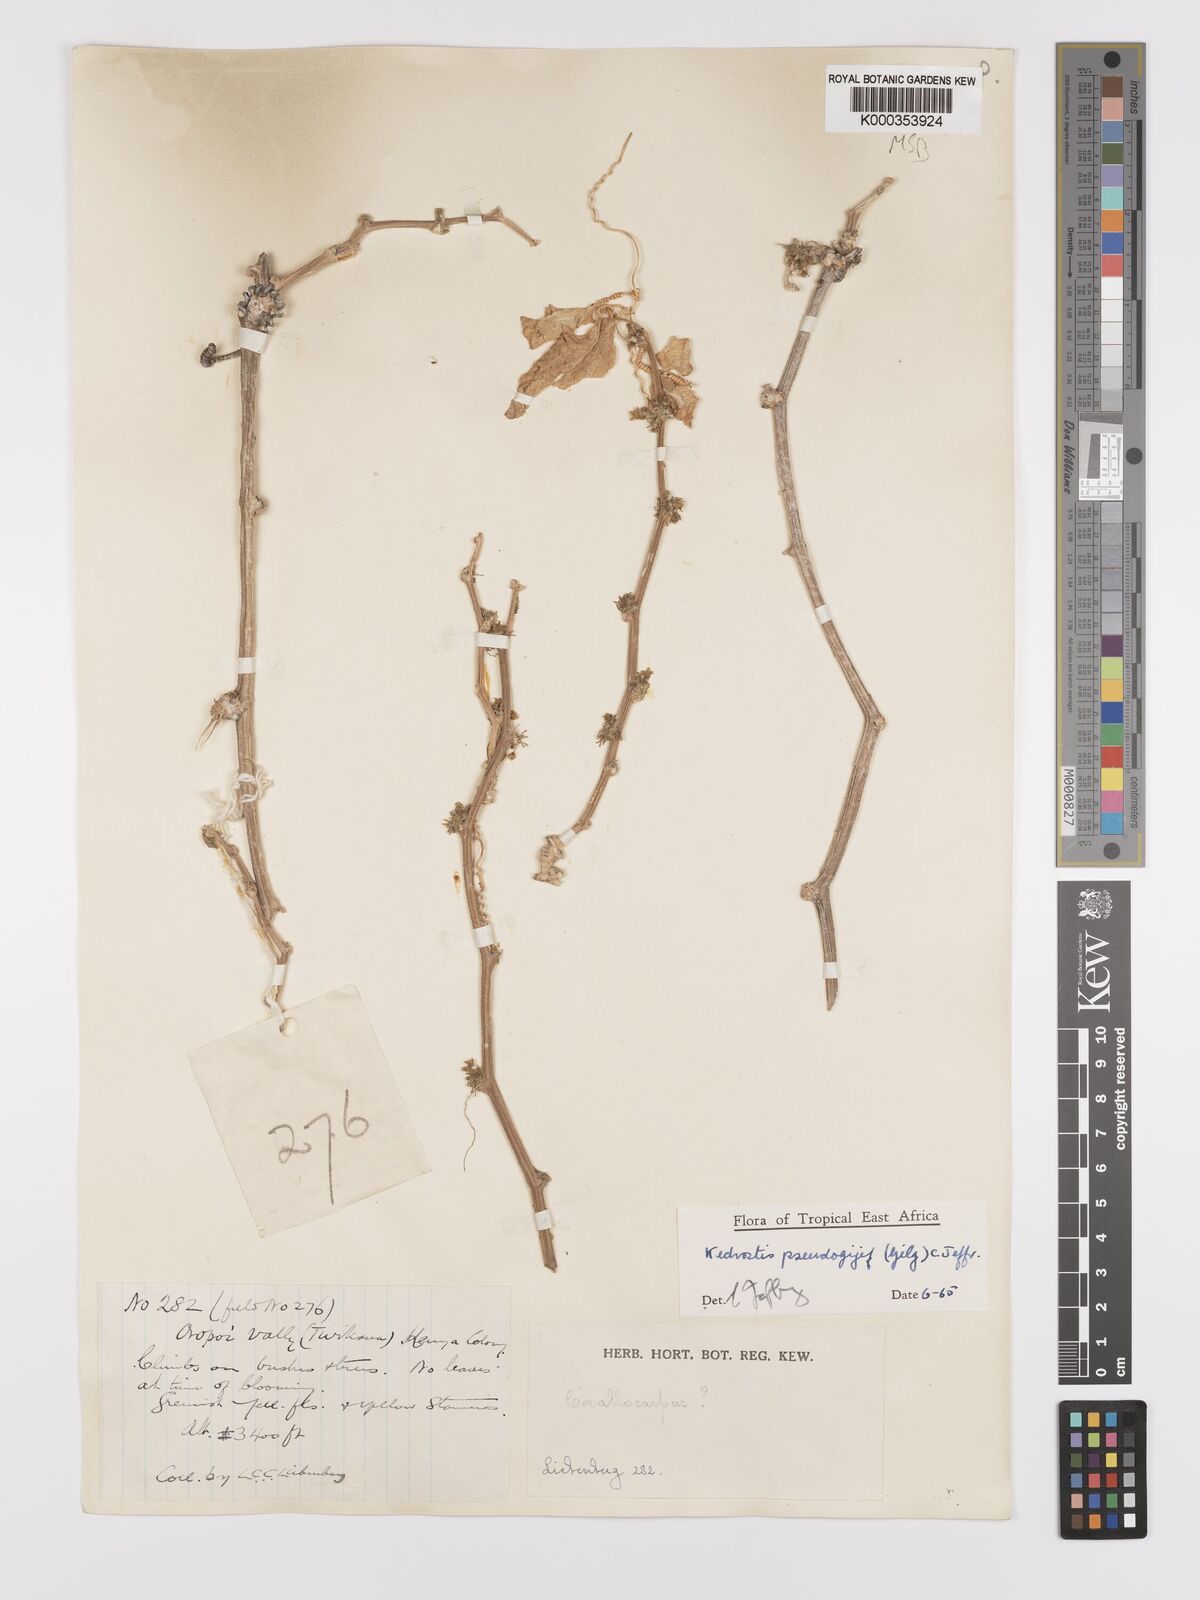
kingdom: Plantae
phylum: Tracheophyta
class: Magnoliopsida
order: Cucurbitales
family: Cucurbitaceae
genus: Kedrostis
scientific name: Kedrostis pseudogijef
